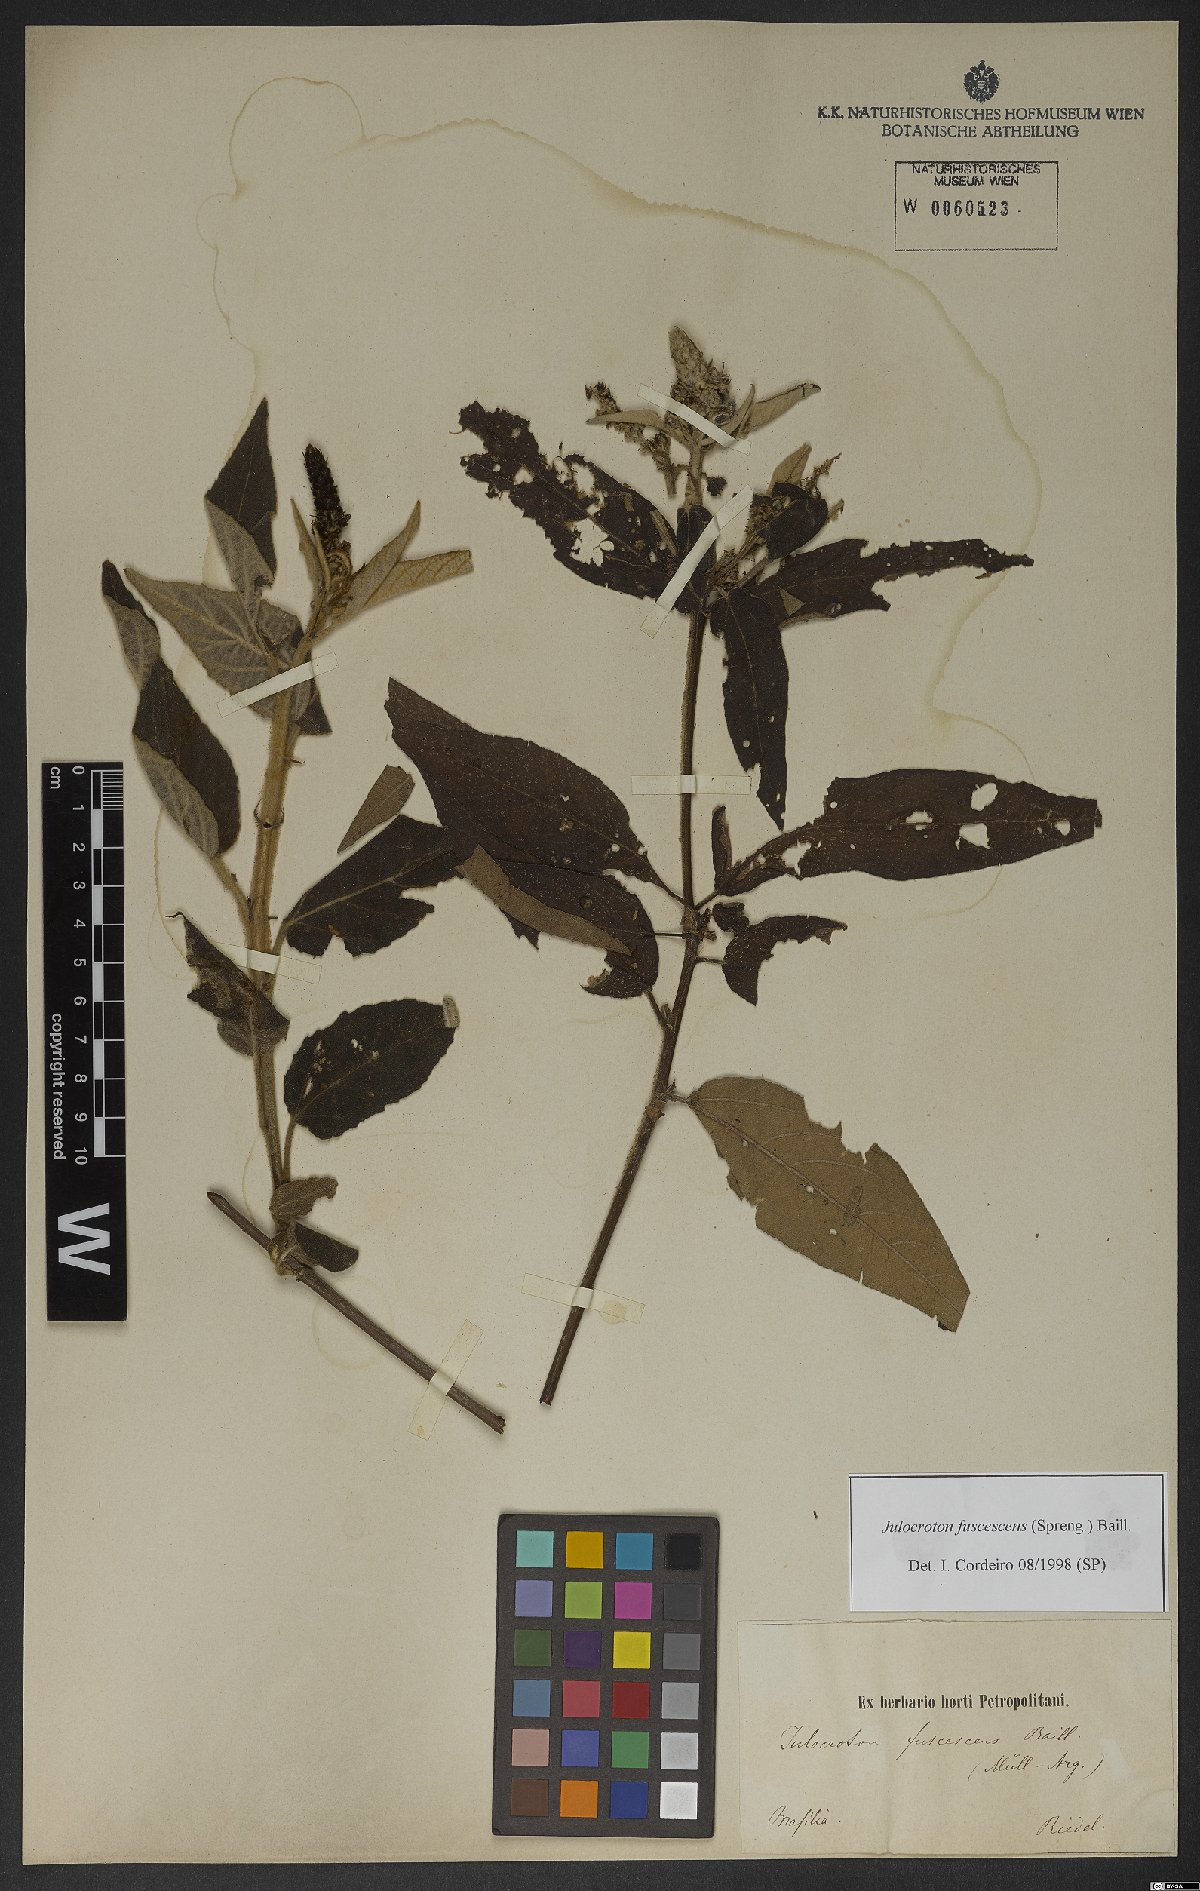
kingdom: Plantae
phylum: Tracheophyta
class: Magnoliopsida
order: Malpighiales
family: Euphorbiaceae
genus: Croton
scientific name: Croton gnaphaloides
